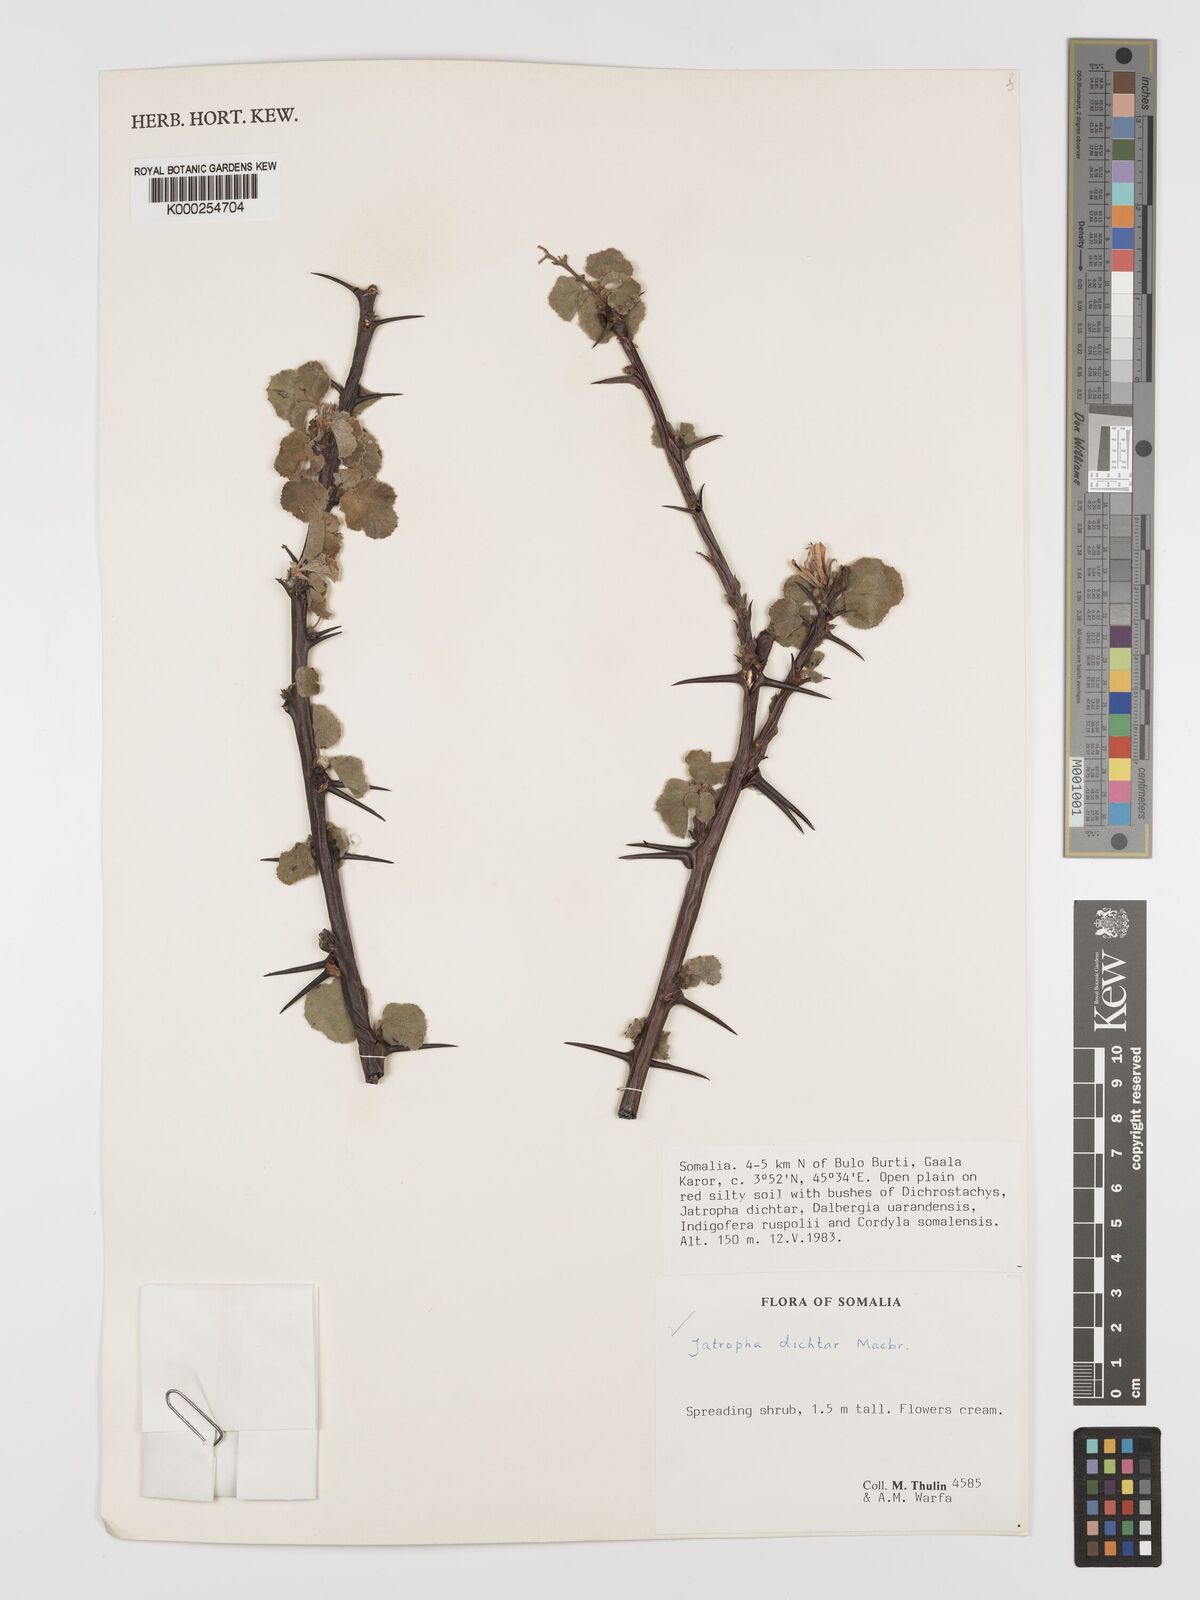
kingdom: Plantae
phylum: Tracheophyta
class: Magnoliopsida
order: Malpighiales
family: Euphorbiaceae
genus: Jatropha
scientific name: Jatropha dichtar
